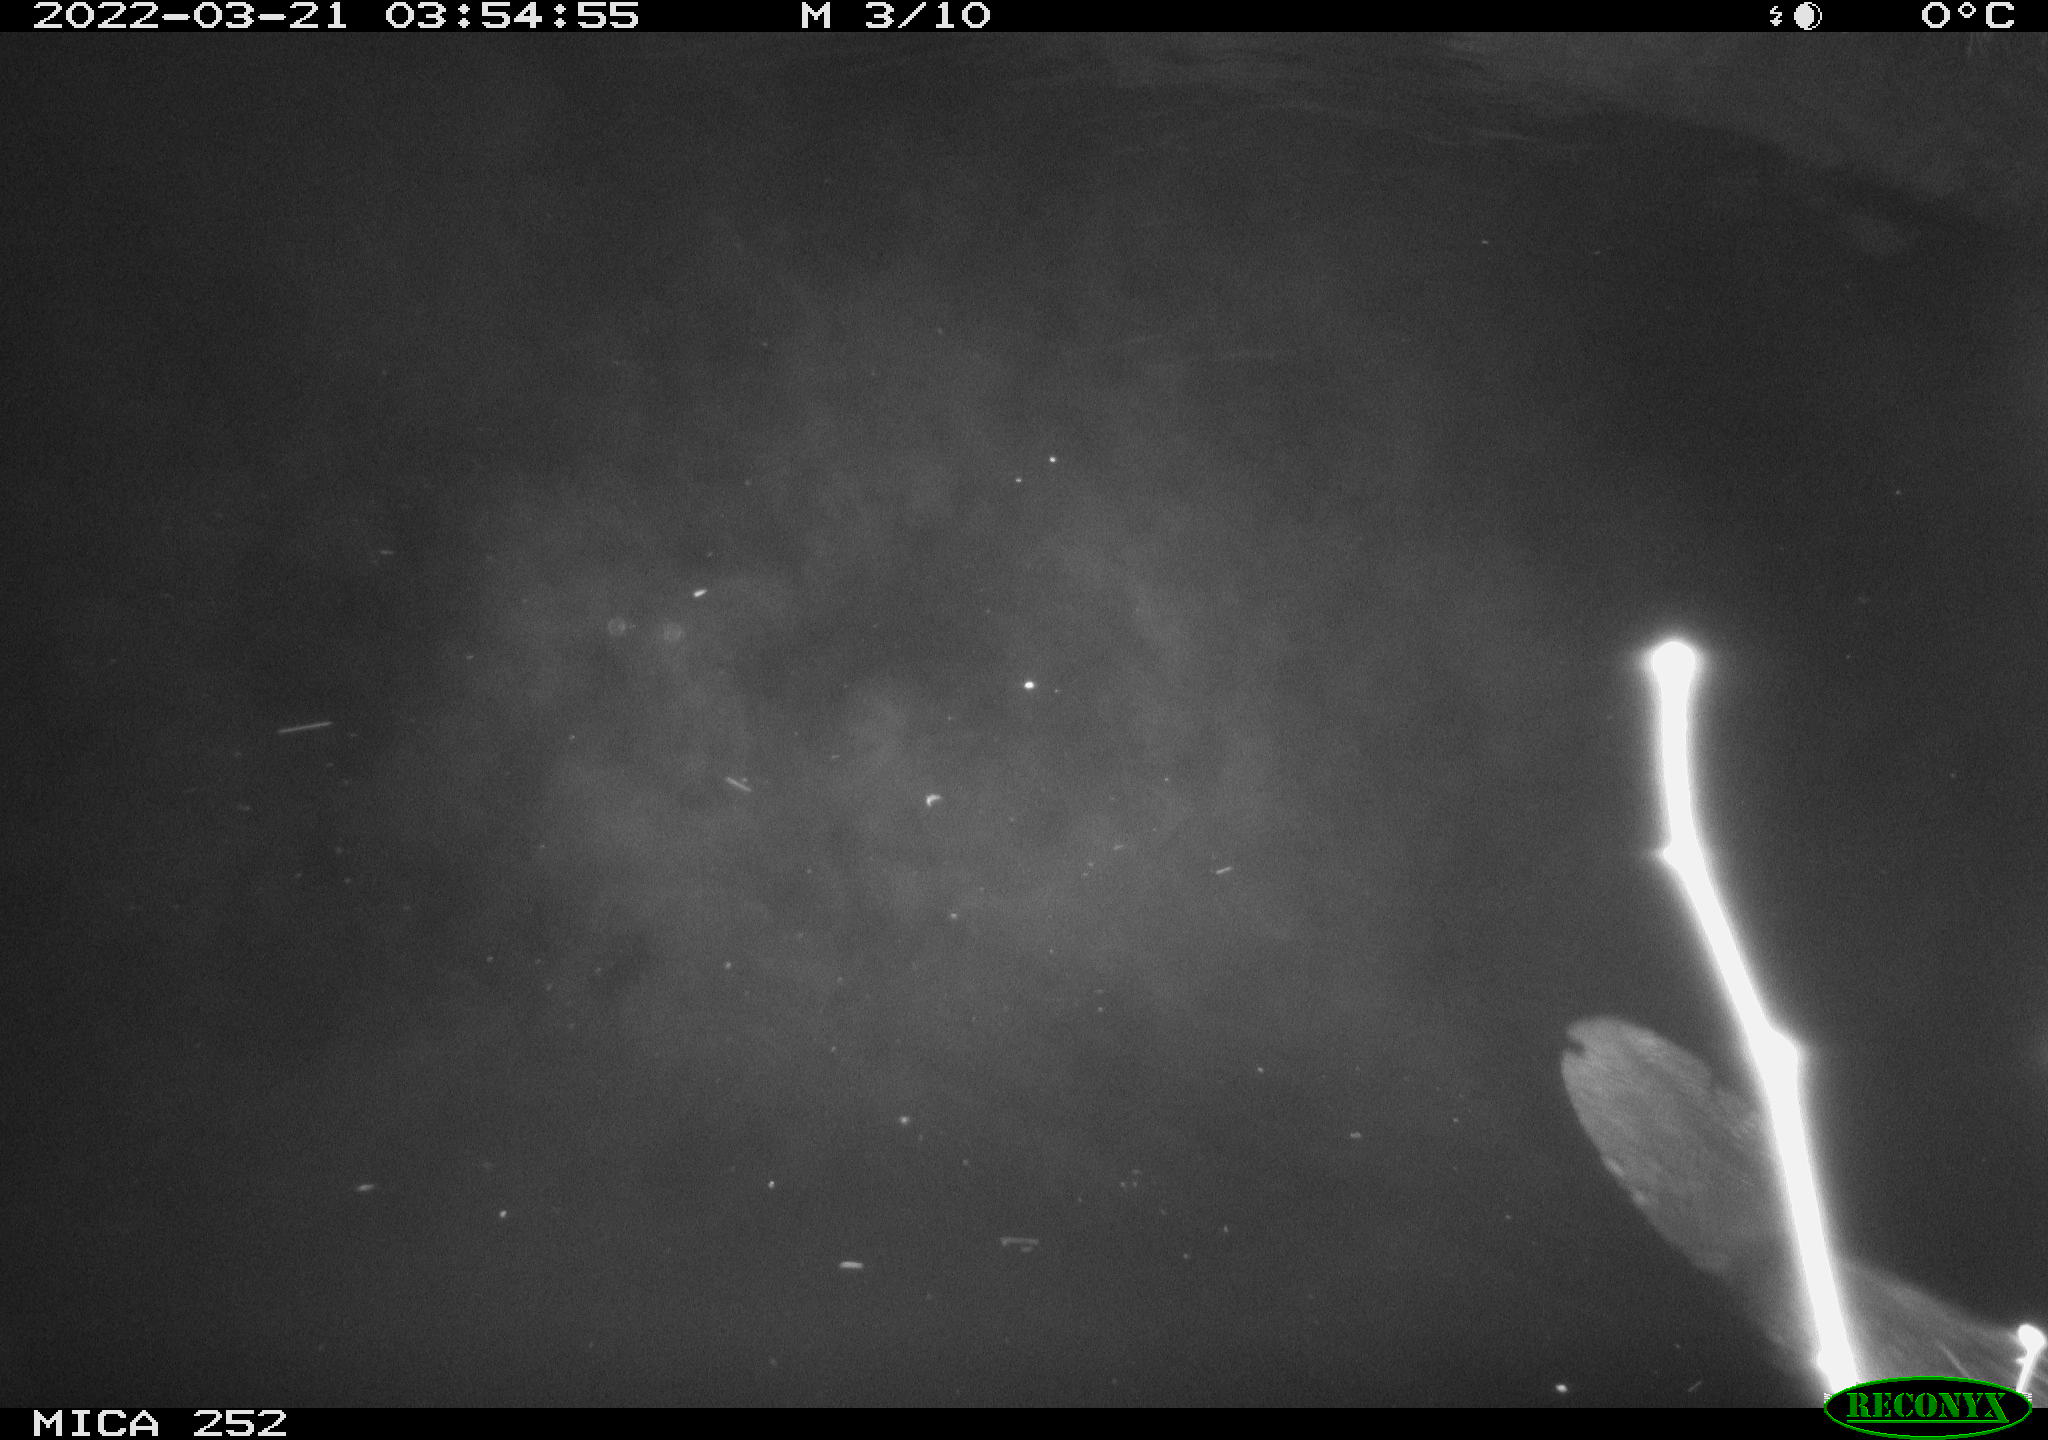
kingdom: Animalia
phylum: Chordata
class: Mammalia
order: Rodentia
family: Castoridae
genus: Castor
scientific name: Castor fiber
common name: Eurasian beaver
